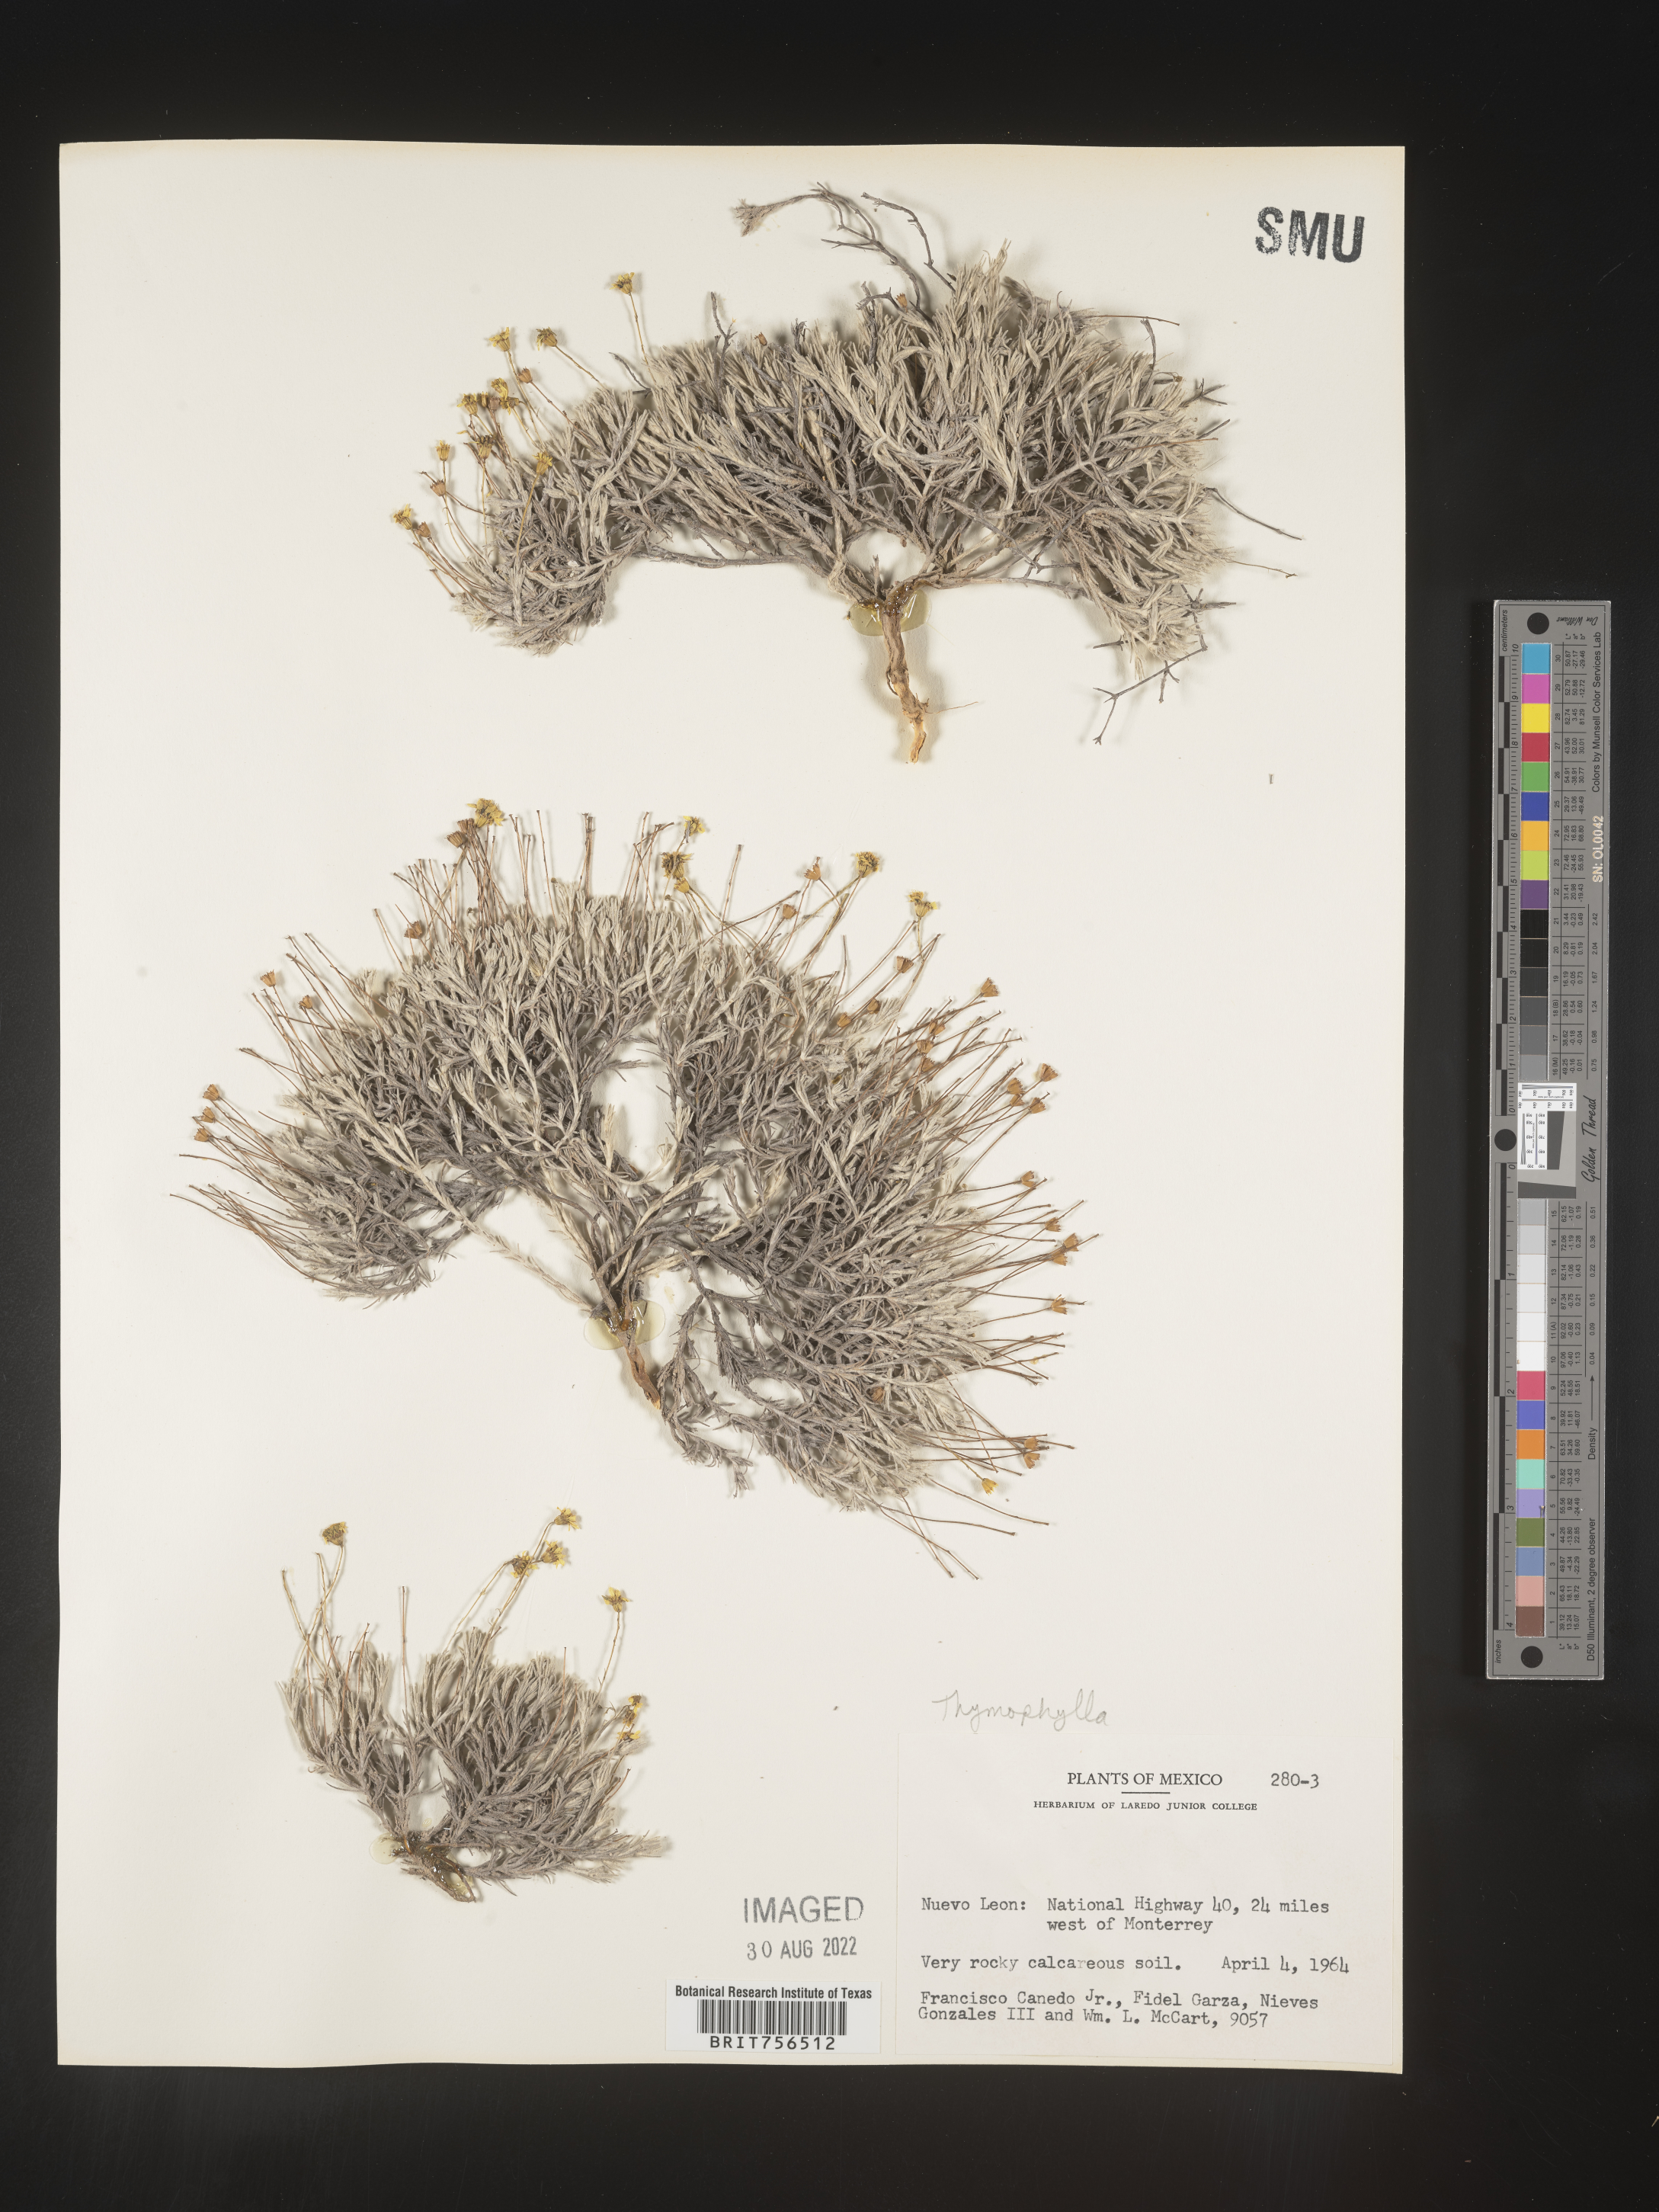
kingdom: Plantae
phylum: Tracheophyta
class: Magnoliopsida
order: Asterales
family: Asteraceae
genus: Thymophylla
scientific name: Thymophylla setifolia
